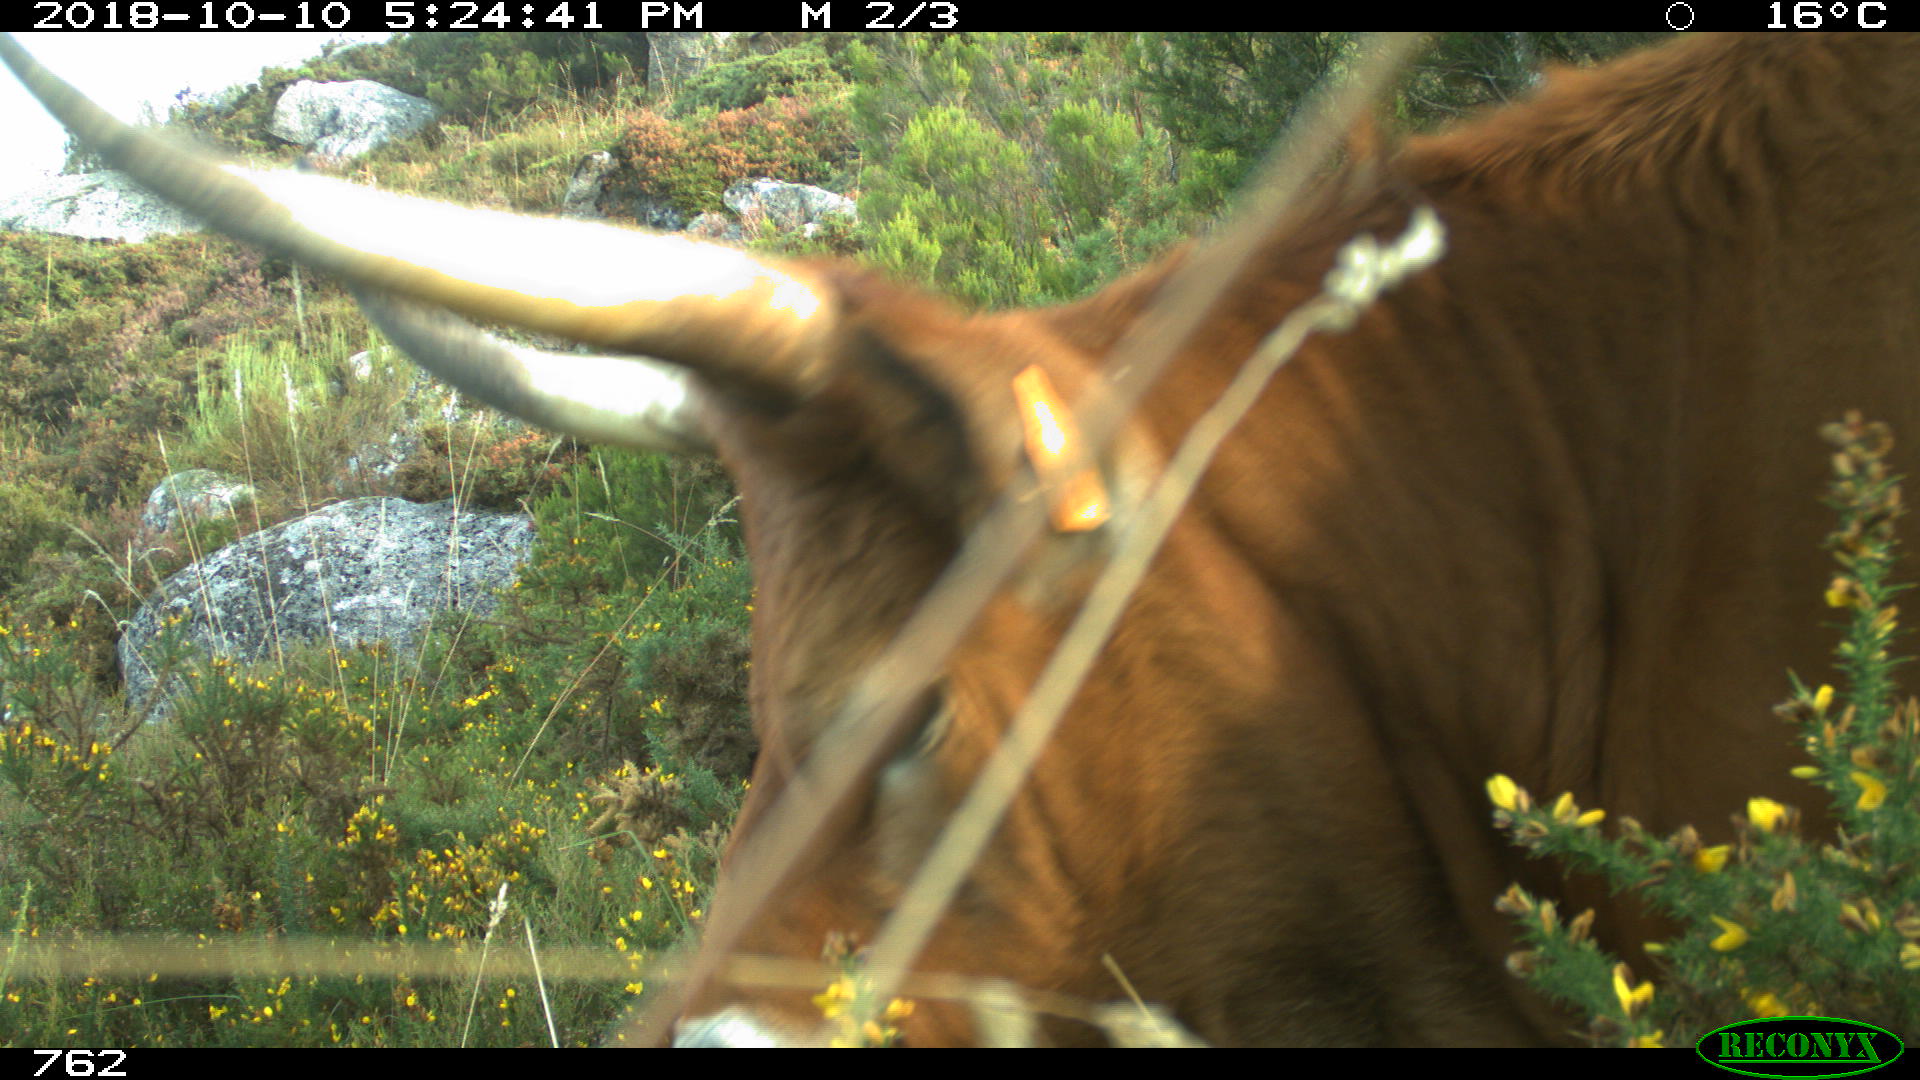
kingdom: Animalia
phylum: Chordata
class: Mammalia
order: Artiodactyla
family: Bovidae
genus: Bos
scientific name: Bos taurus
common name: Domesticated cattle
